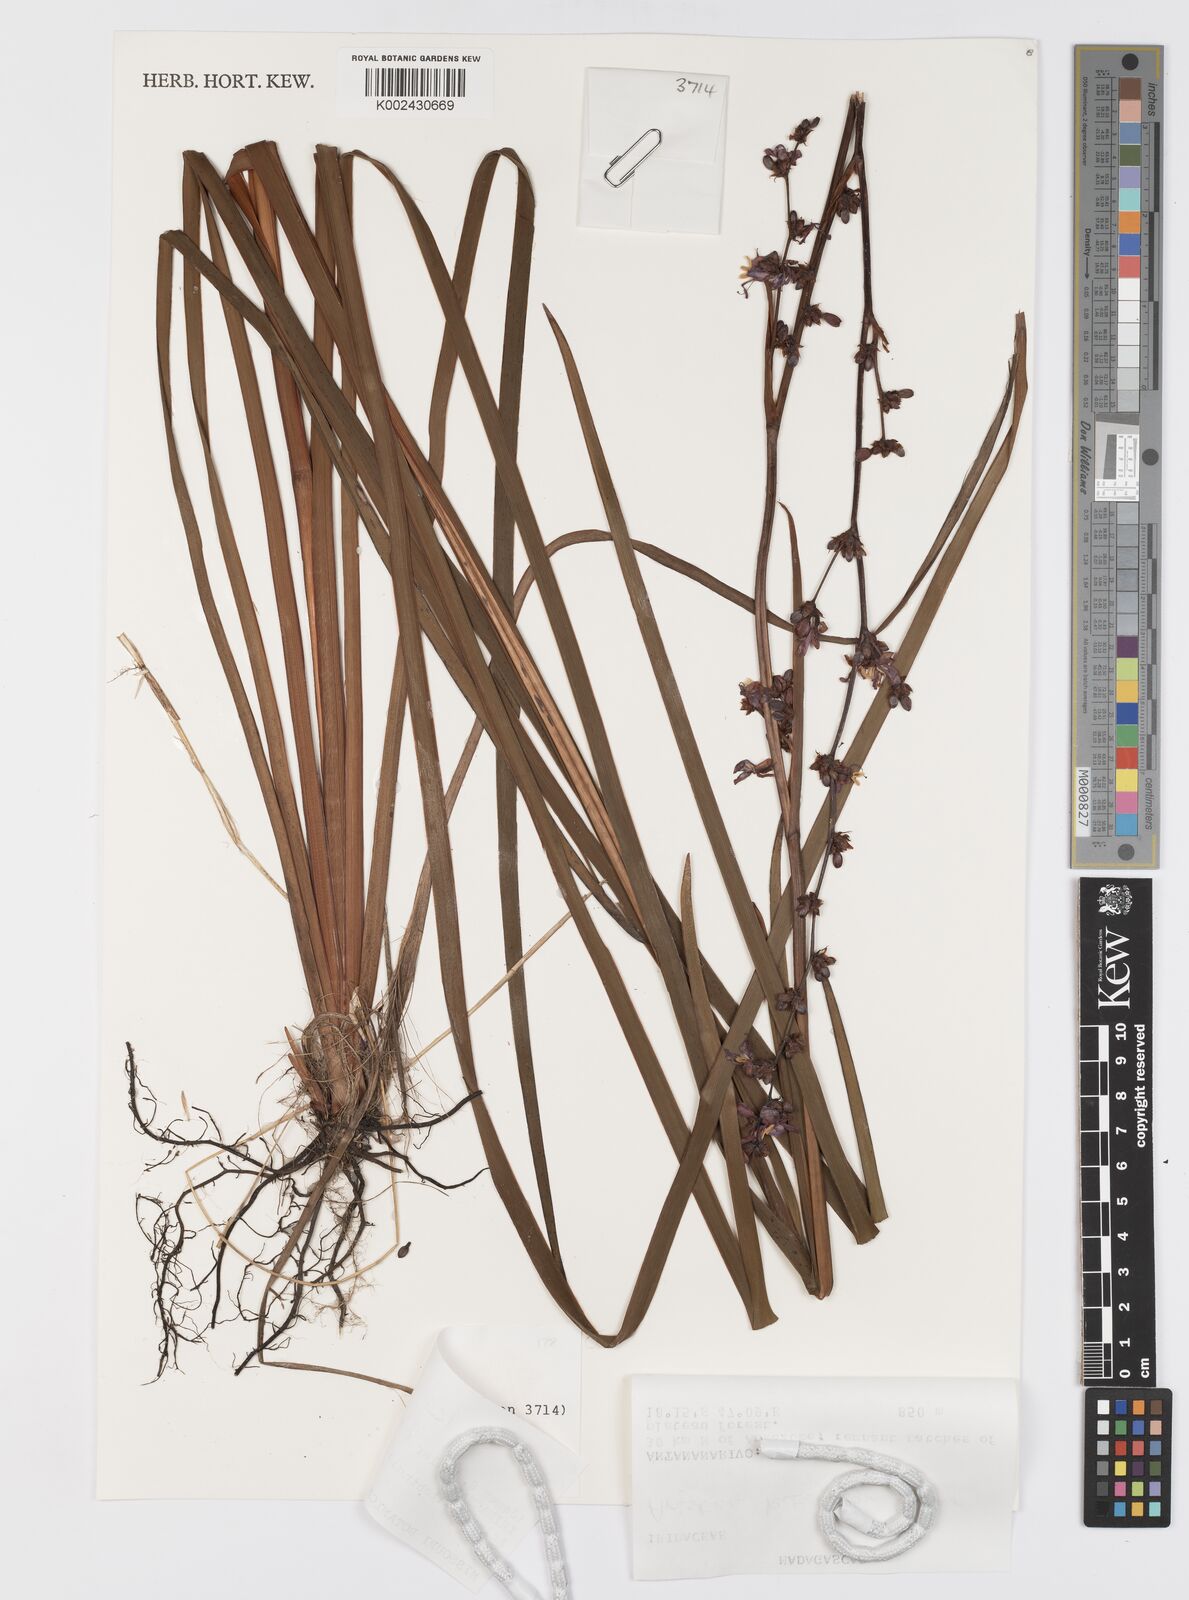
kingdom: Plantae
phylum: Tracheophyta
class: Liliopsida
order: Asparagales
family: Iridaceae
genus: Aristea
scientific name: Aristea kitchingii
